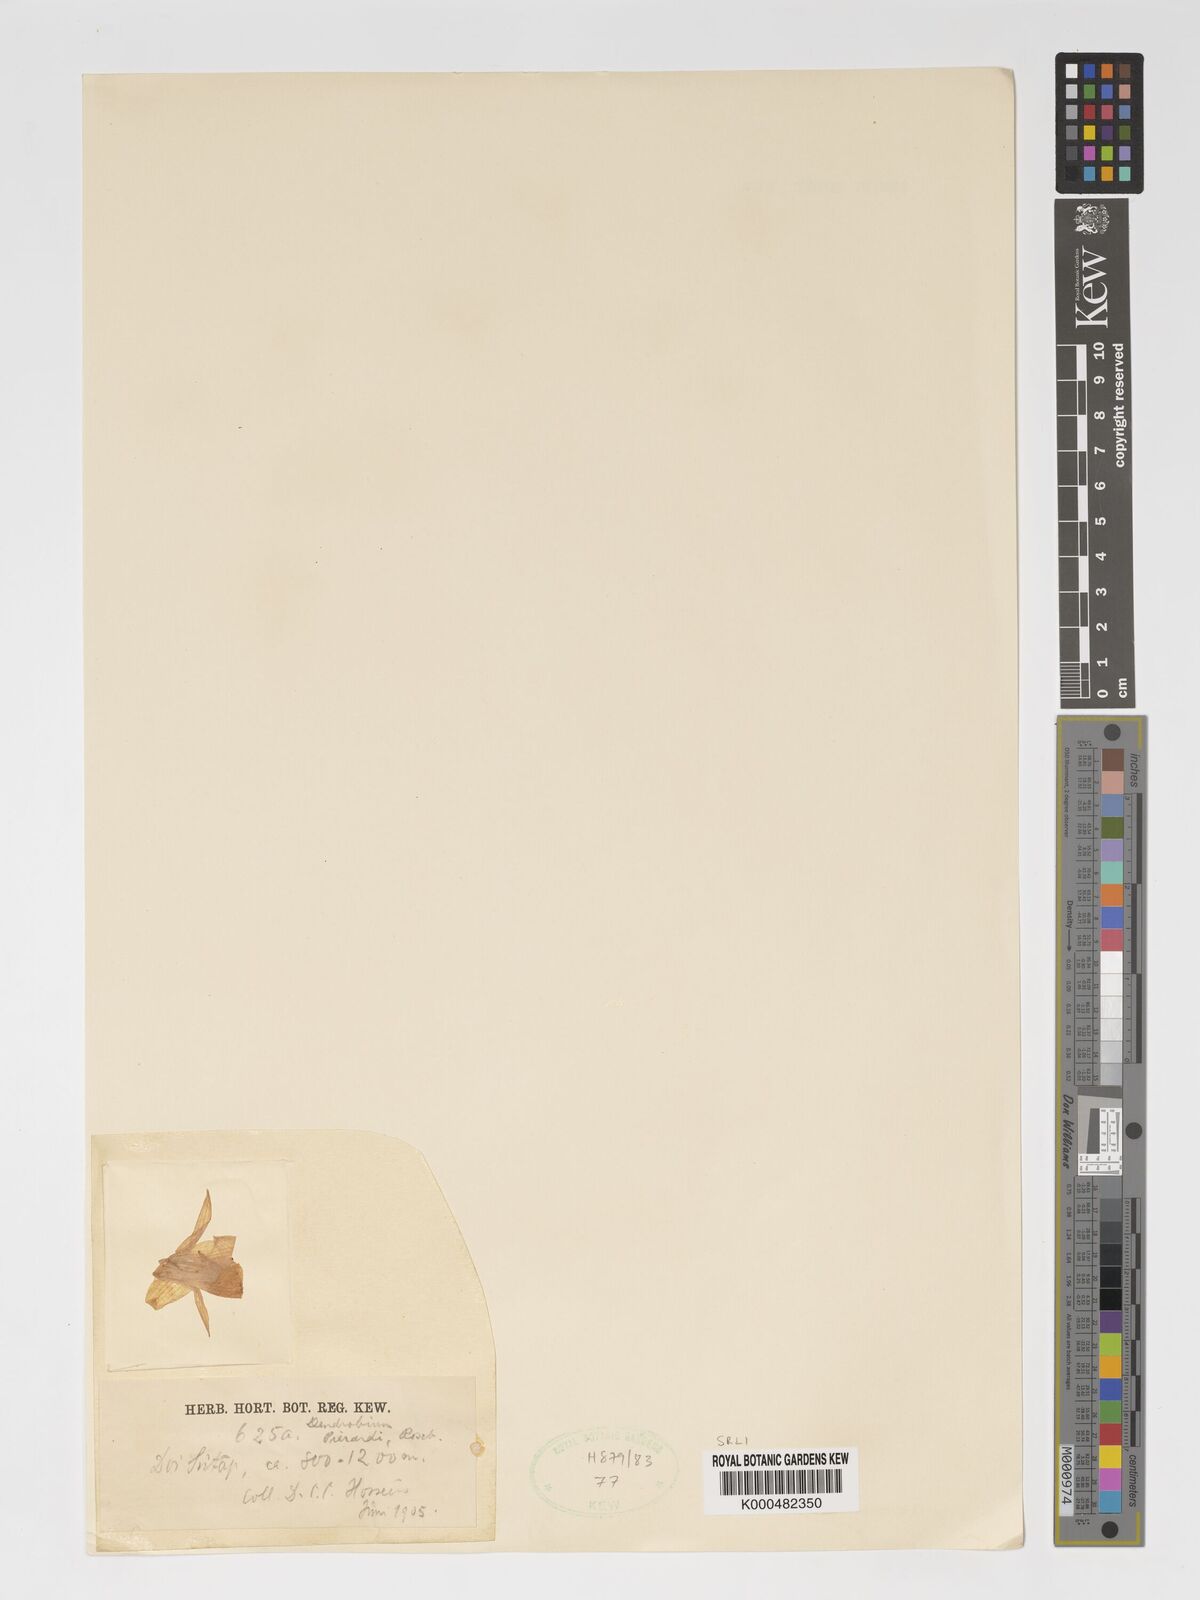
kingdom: Plantae
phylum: Tracheophyta
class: Liliopsida
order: Asparagales
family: Orchidaceae
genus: Dendrobium
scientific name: Dendrobium macrostachyum
